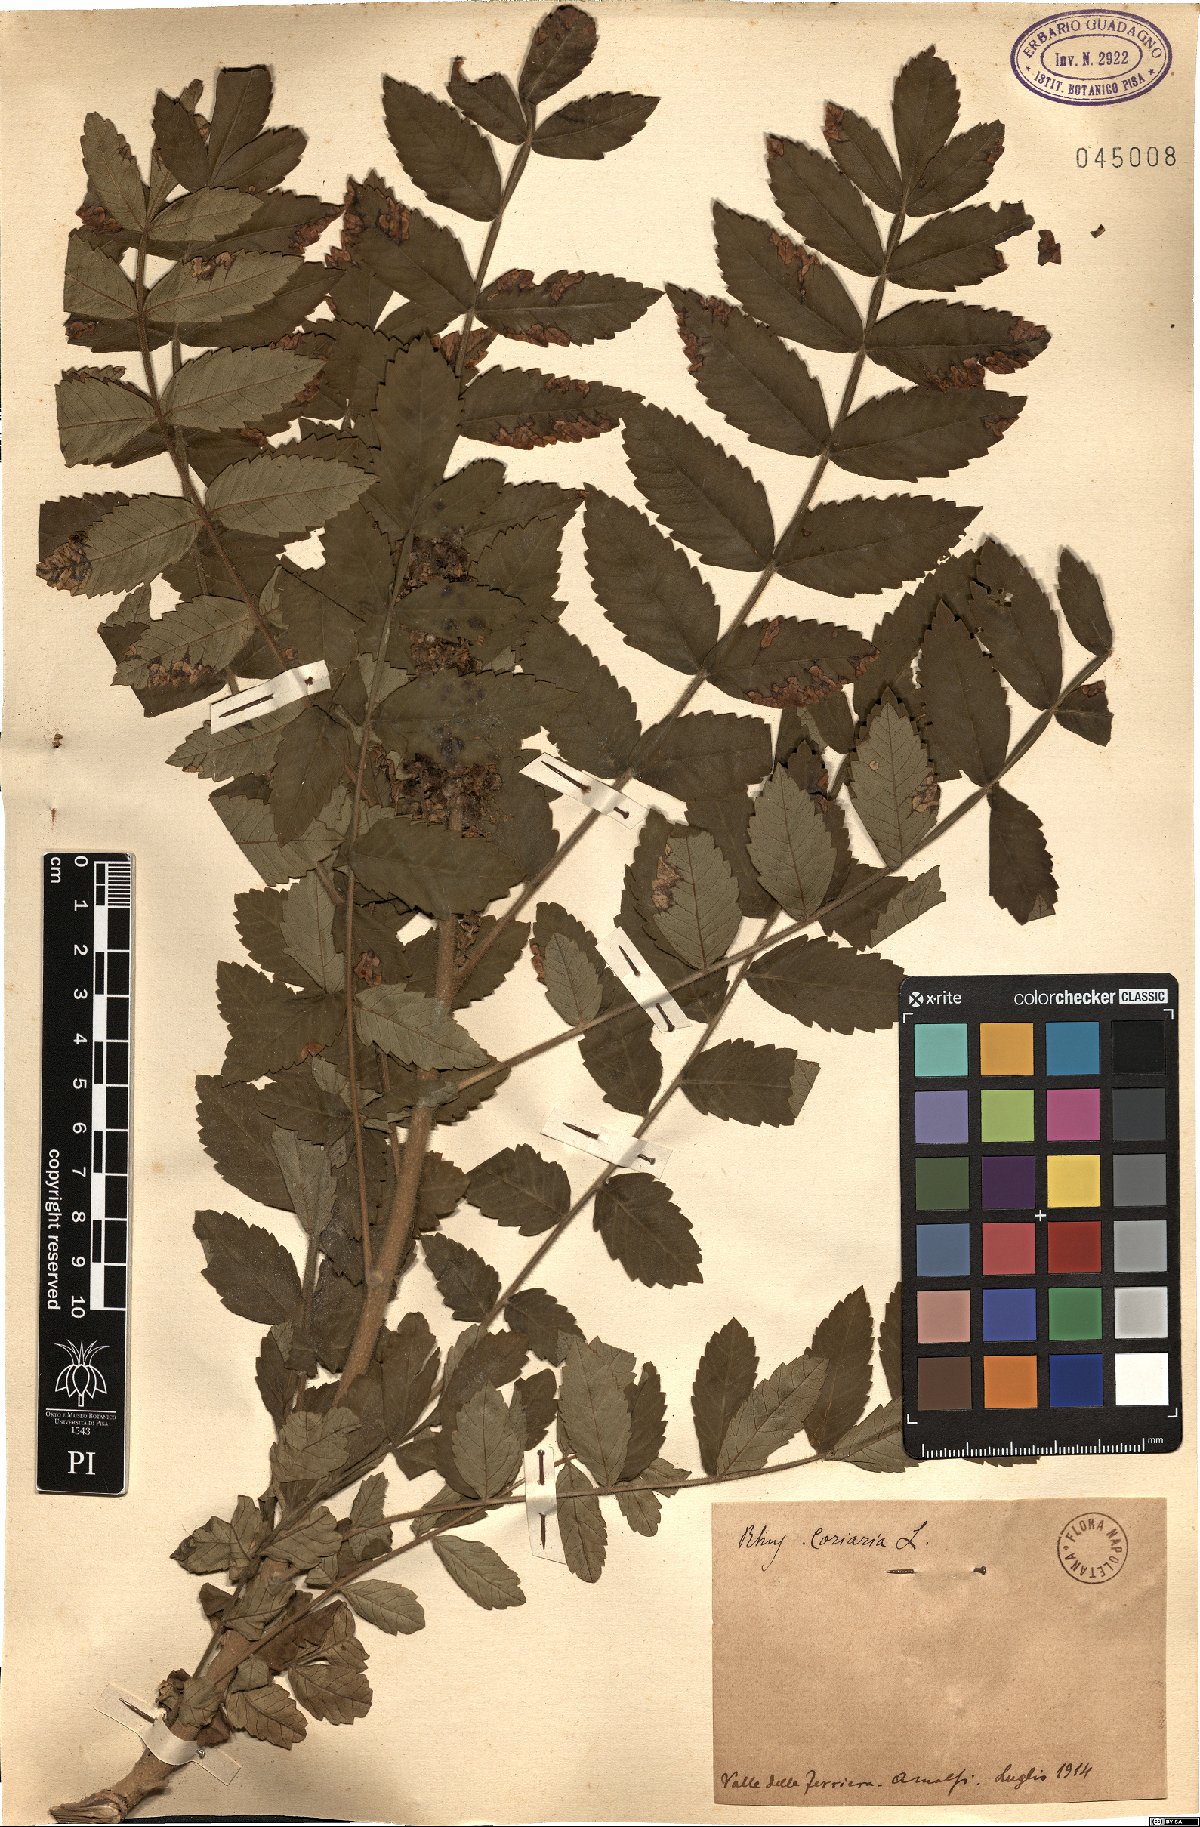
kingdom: Plantae
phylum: Tracheophyta
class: Magnoliopsida
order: Sapindales
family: Anacardiaceae
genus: Rhus
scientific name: Rhus coriaria
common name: Tanner's sumach
